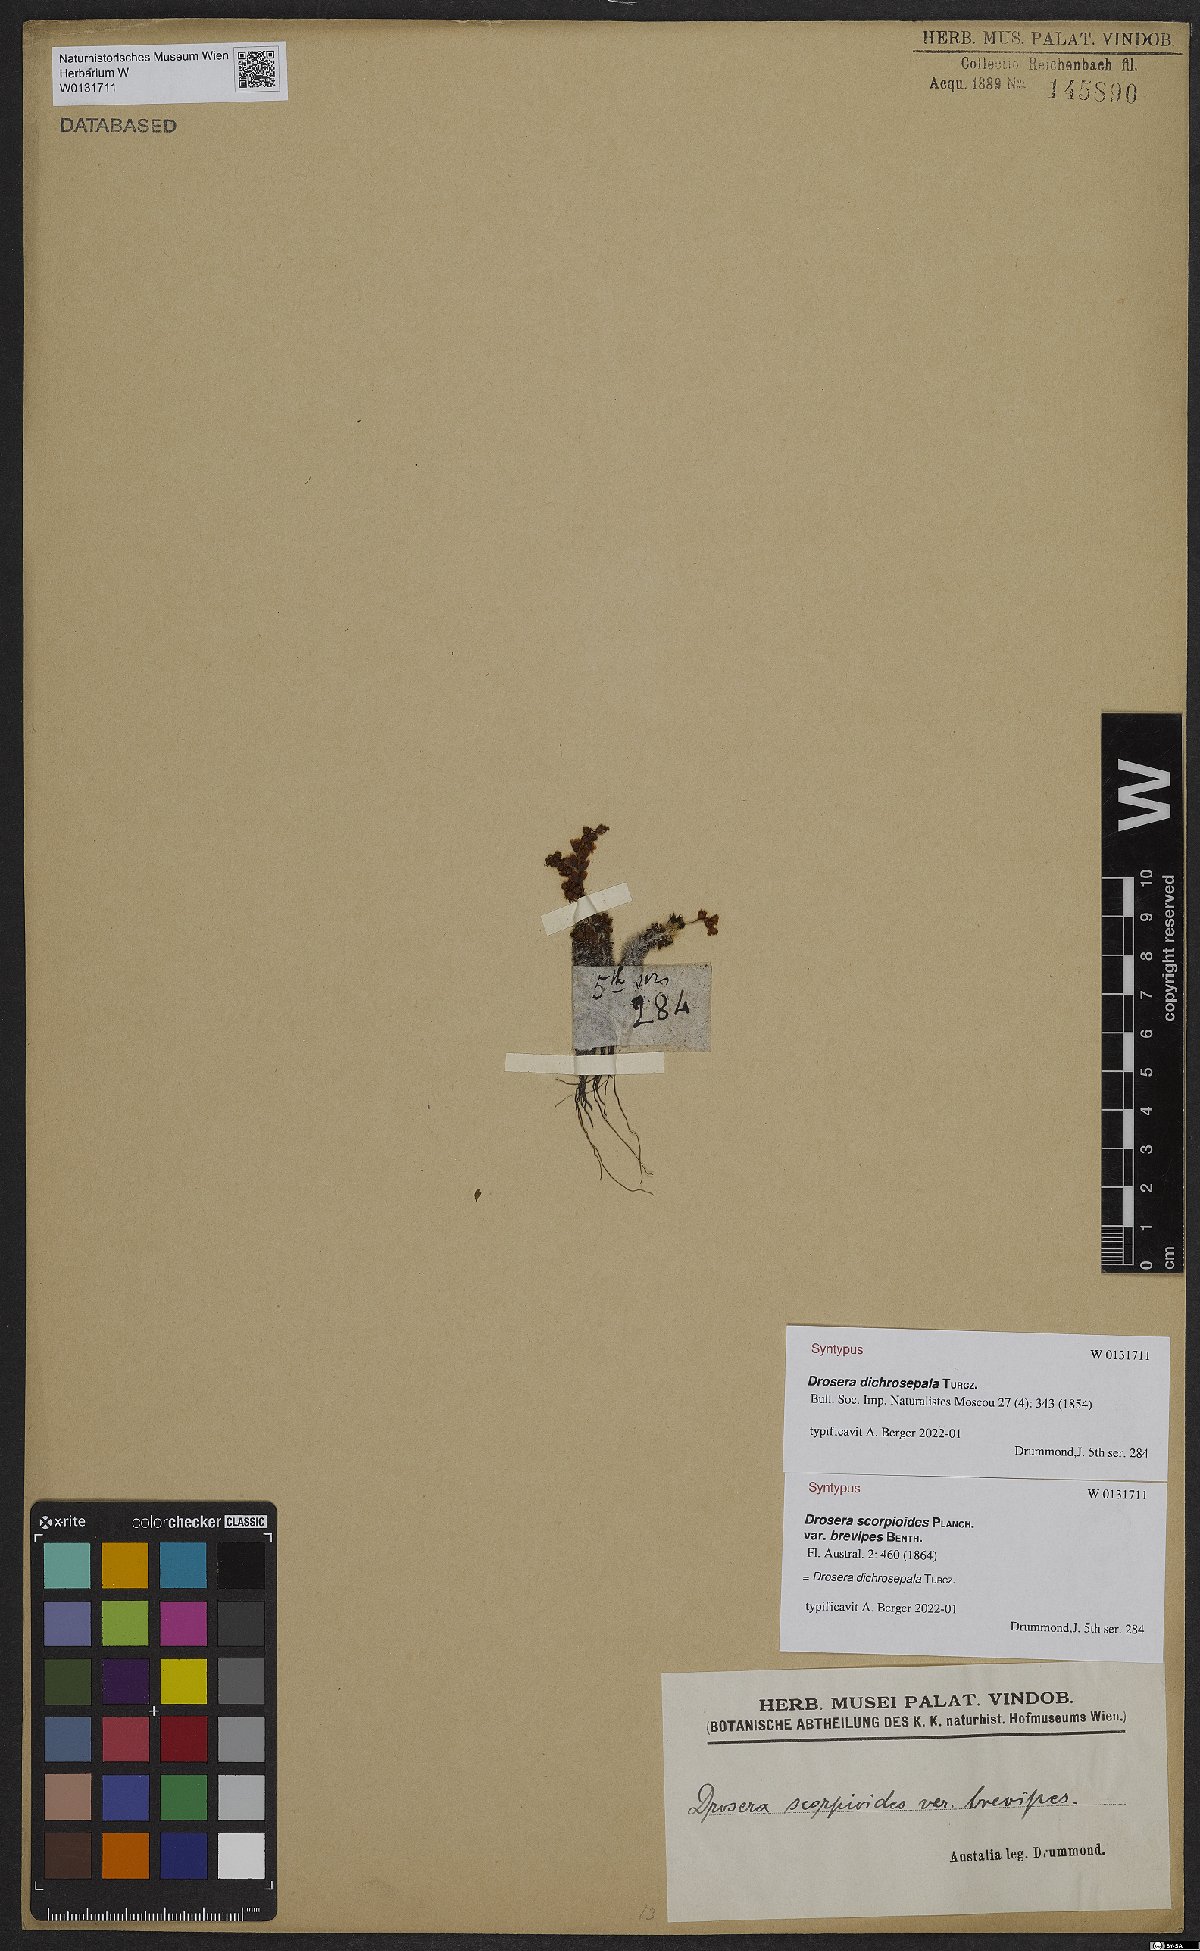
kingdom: Plantae
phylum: Tracheophyta
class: Magnoliopsida
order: Caryophyllales
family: Droseraceae
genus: Drosera
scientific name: Drosera dichrosepala
